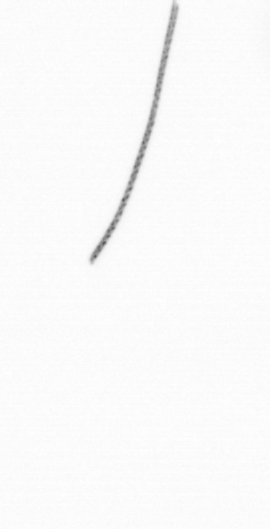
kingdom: Chromista
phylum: Ochrophyta
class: Bacillariophyceae
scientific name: Bacillariophyceae
